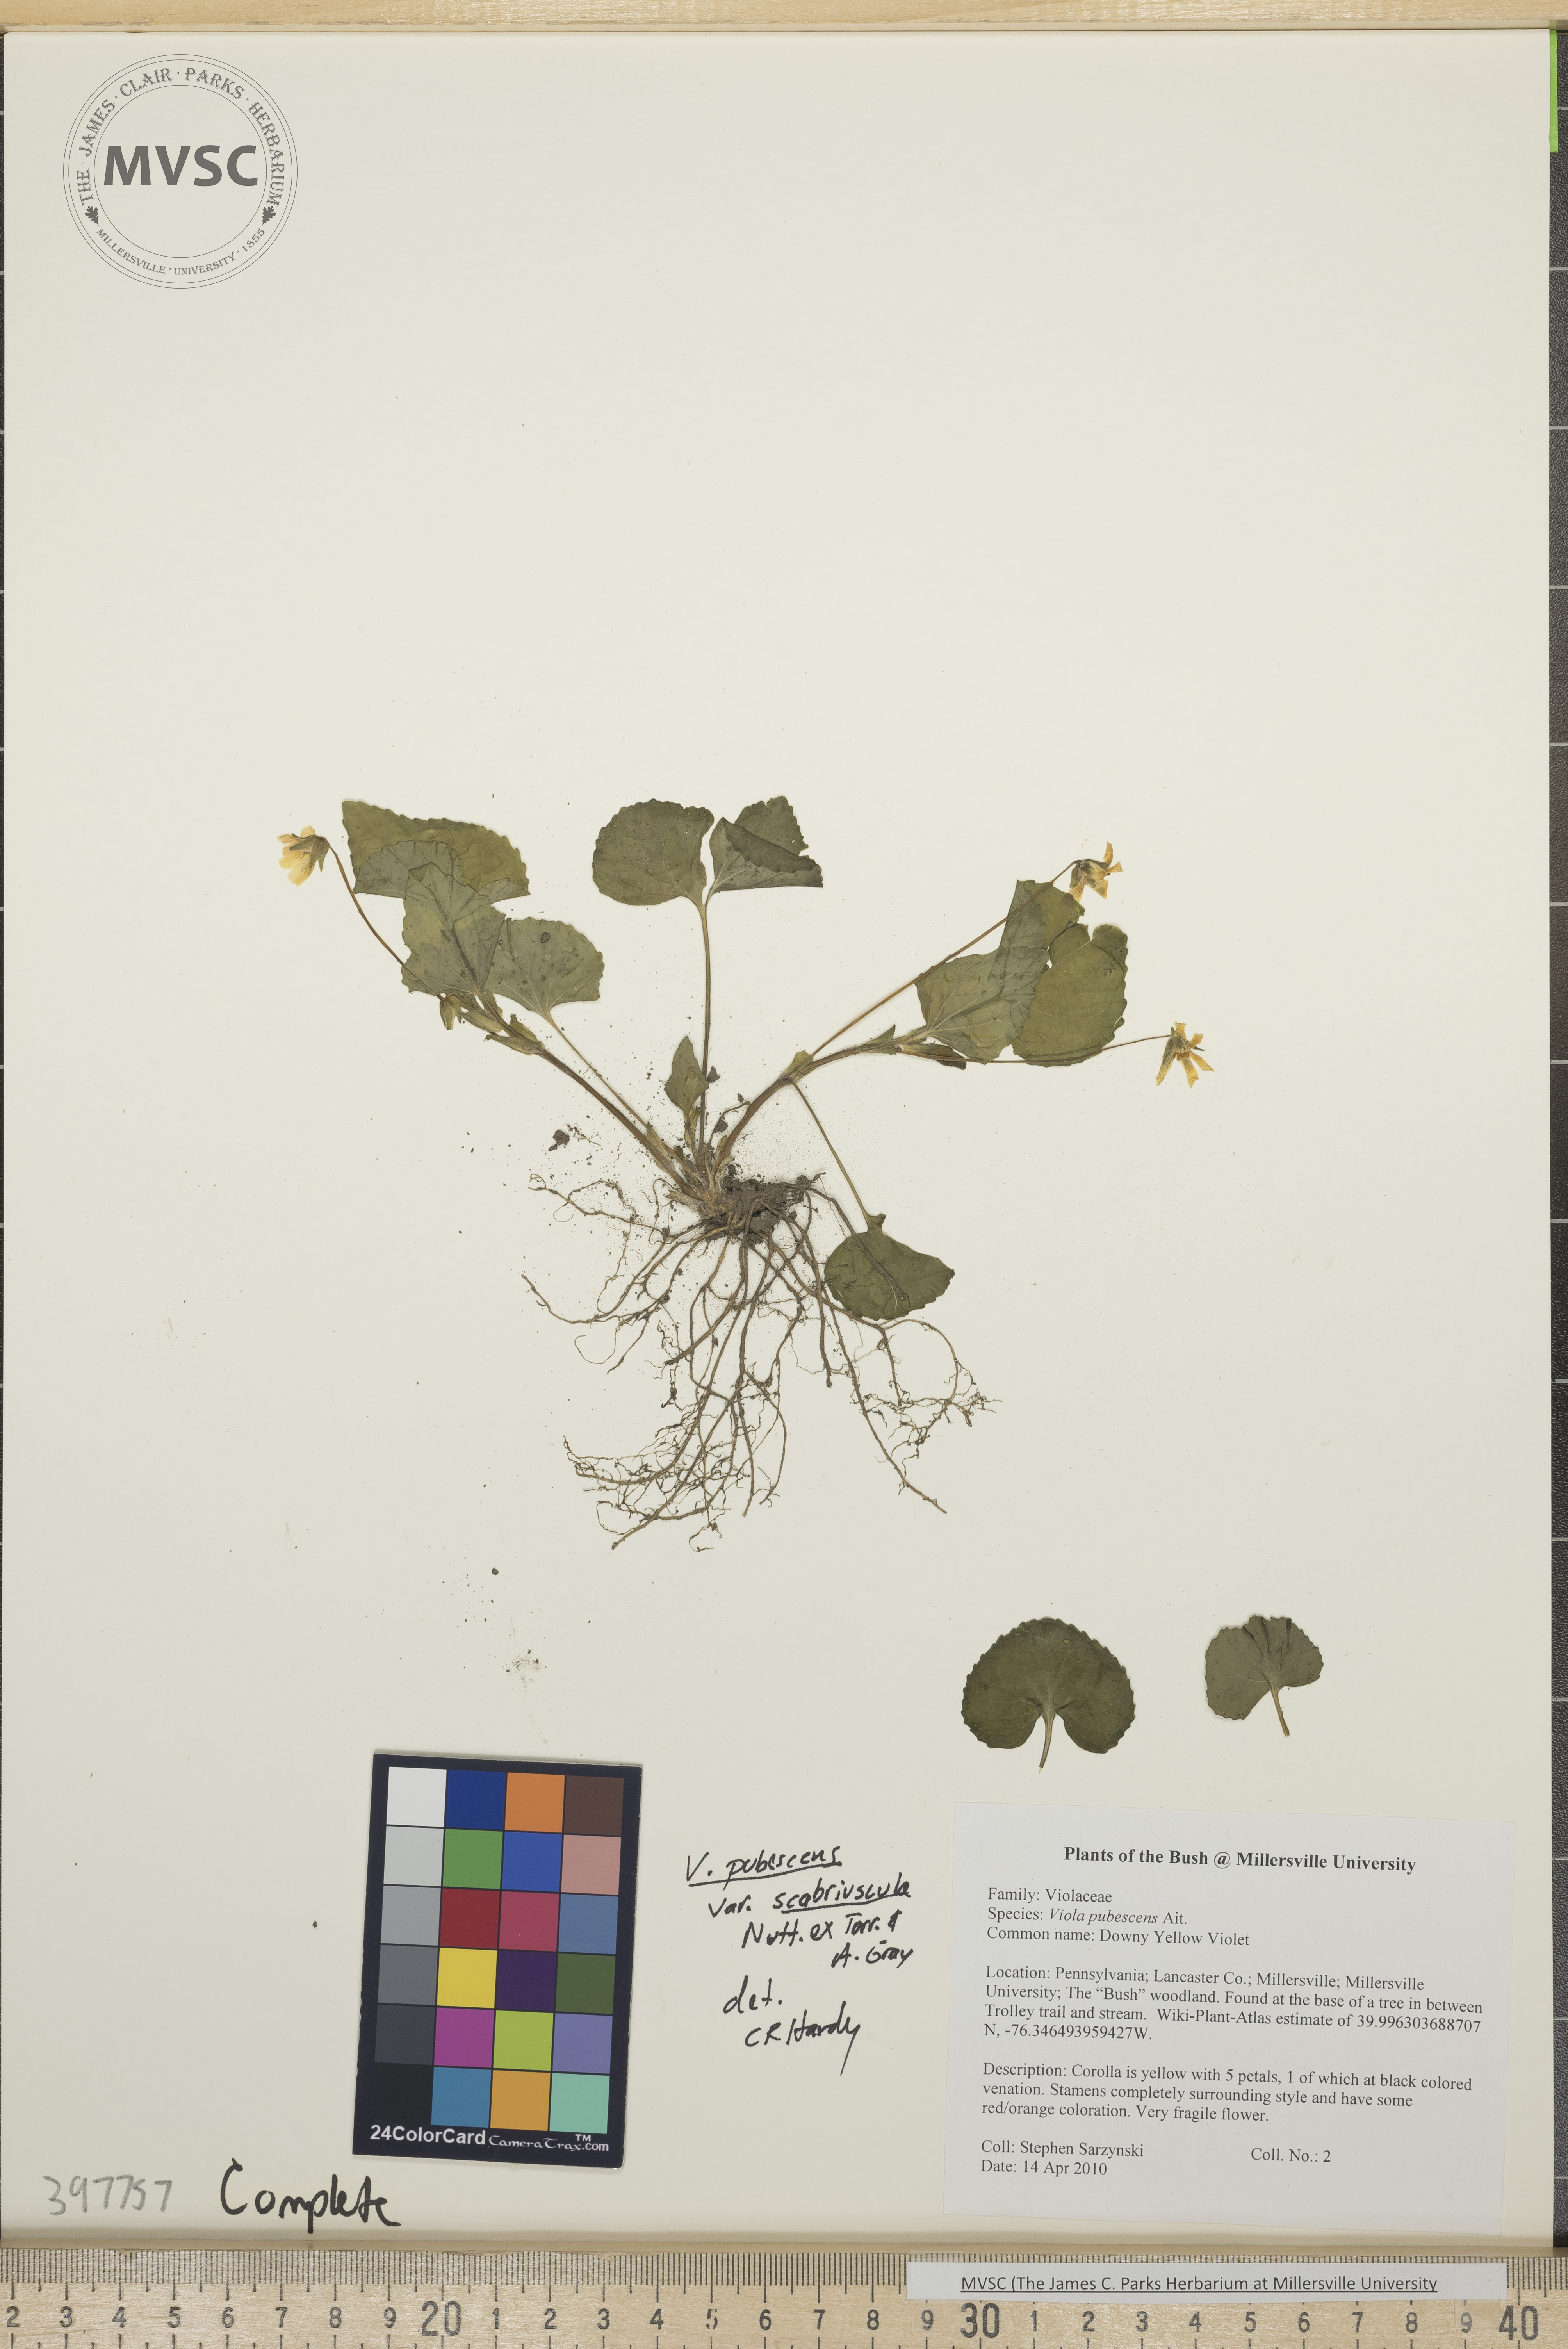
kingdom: Plantae
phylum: Tracheophyta
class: Magnoliopsida
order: Malpighiales
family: Violaceae
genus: Viola
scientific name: Viola pubescens
